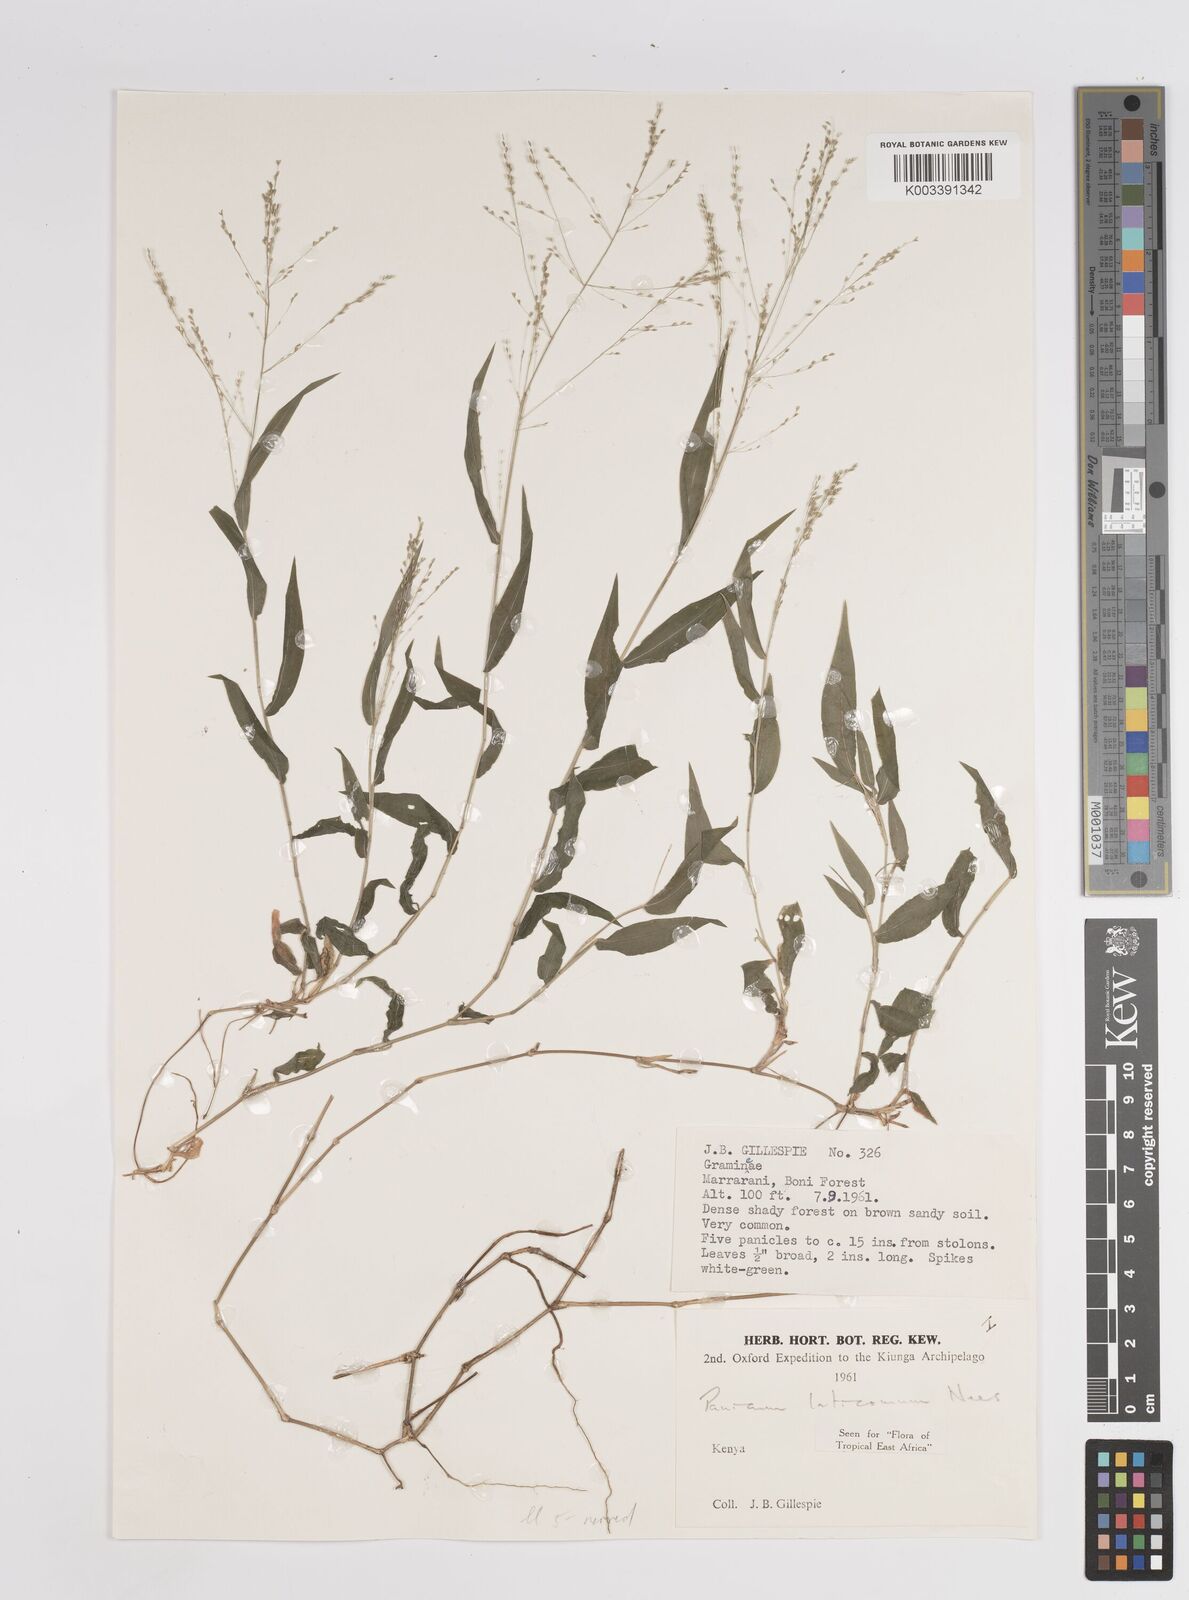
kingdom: Plantae
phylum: Tracheophyta
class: Liliopsida
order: Poales
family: Poaceae
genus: Panicum
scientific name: Panicum laticomum
